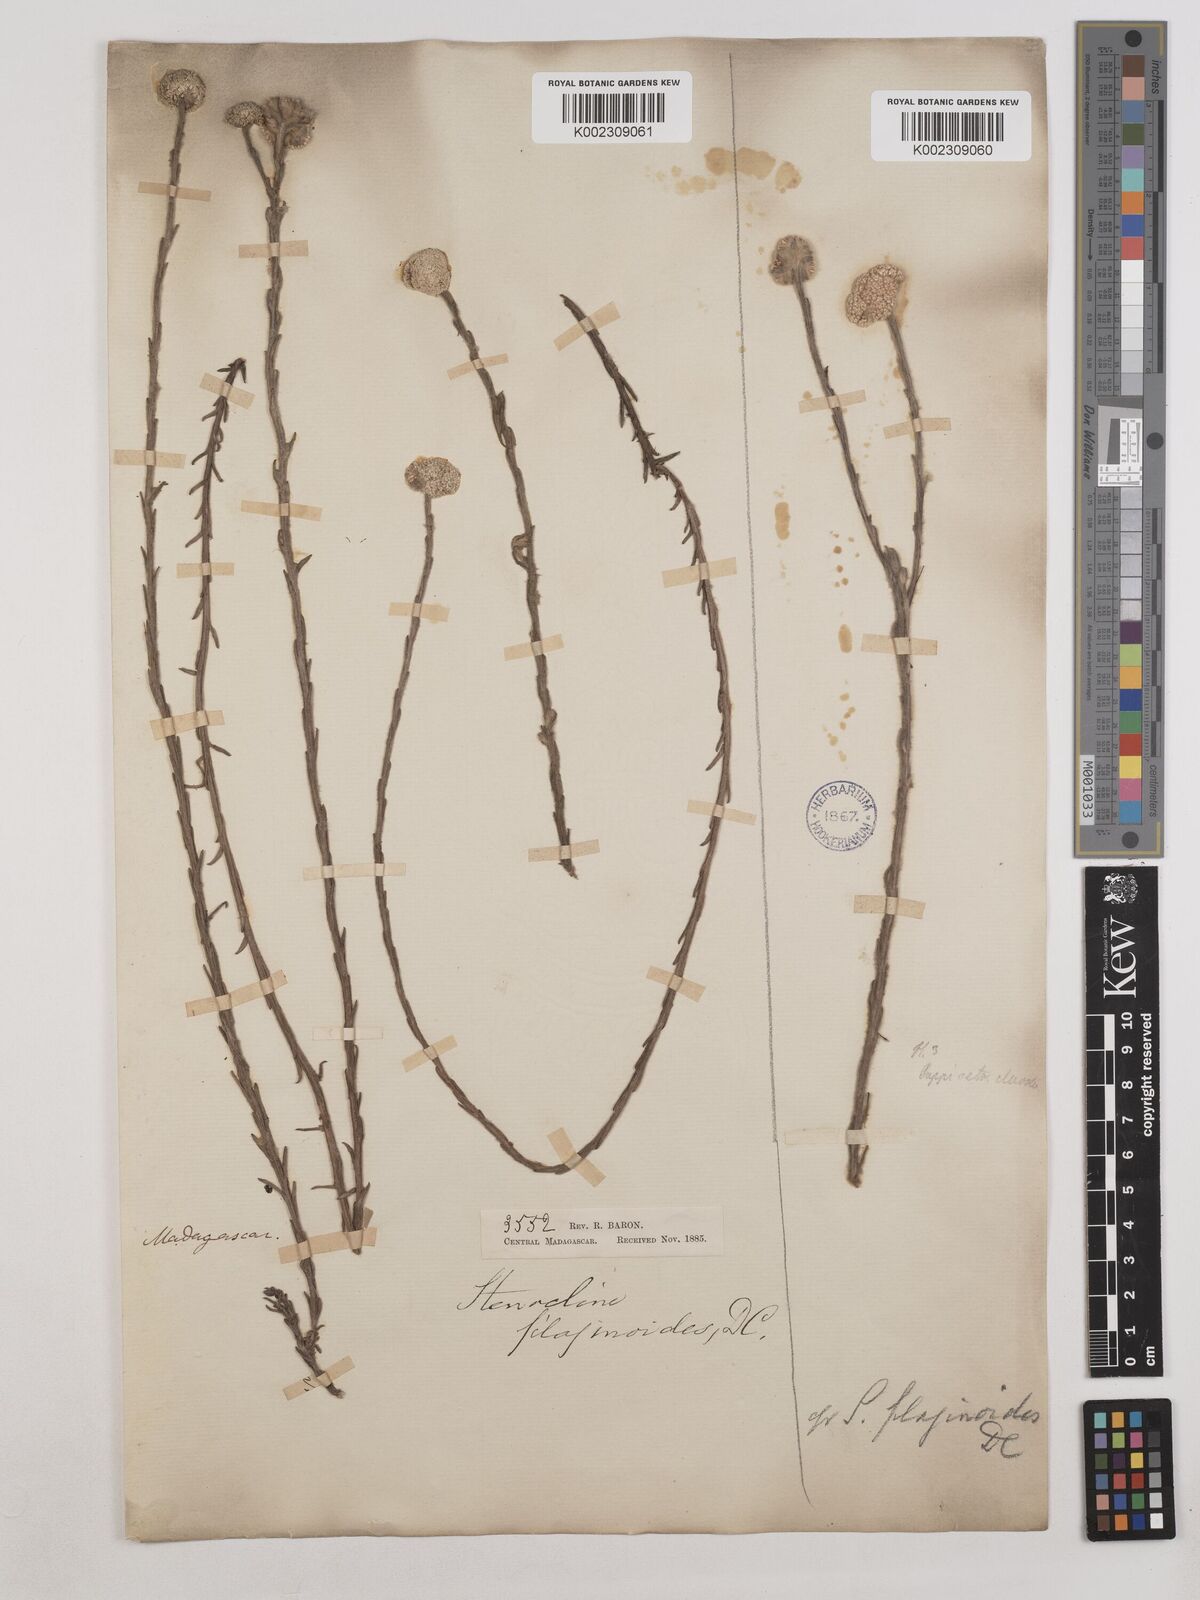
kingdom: Plantae
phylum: Tracheophyta
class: Magnoliopsida
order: Asterales
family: Asteraceae
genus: Helichrysum
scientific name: Helichrysum filaginoides
